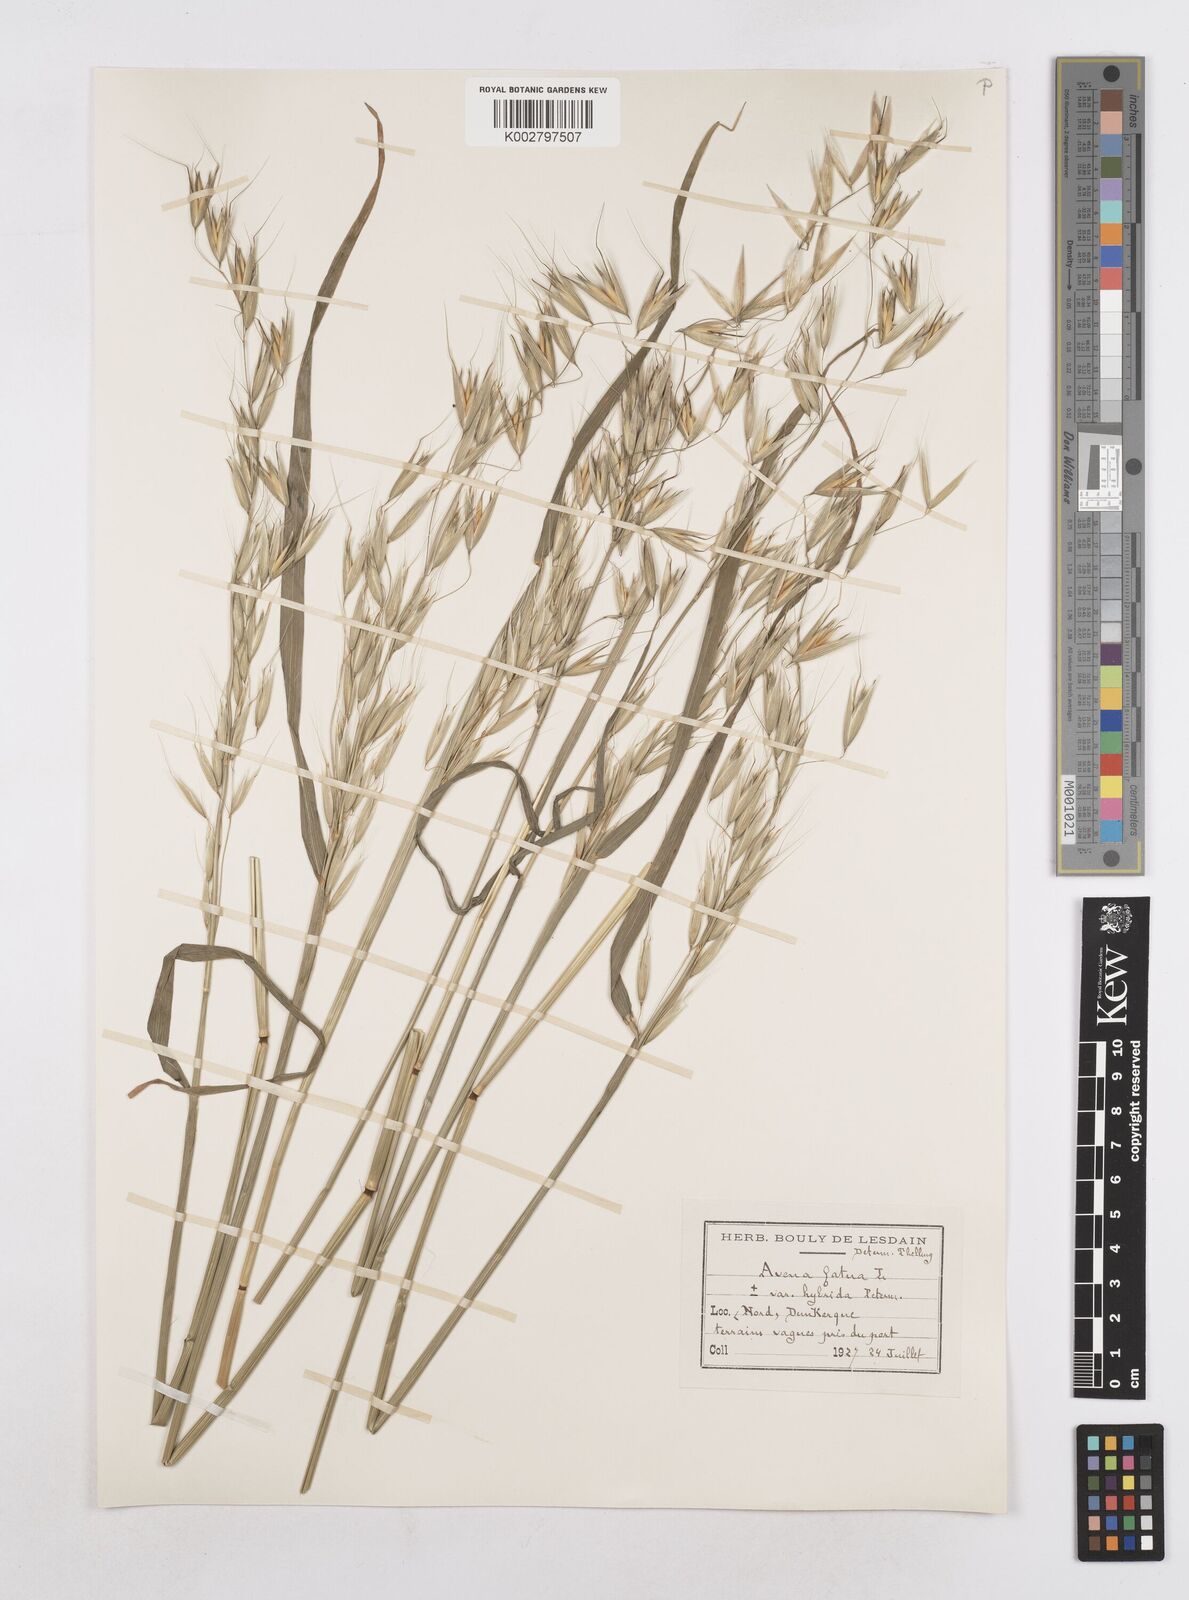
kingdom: Plantae
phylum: Tracheophyta
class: Liliopsida
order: Poales
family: Poaceae
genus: Avena
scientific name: Avena fatua
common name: Wild oat
